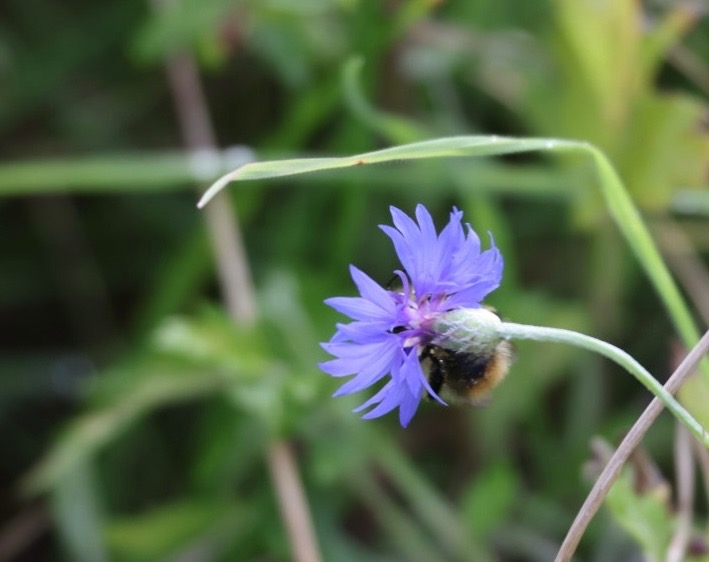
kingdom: Plantae
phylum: Tracheophyta
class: Magnoliopsida
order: Asterales
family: Asteraceae
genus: Centaurea
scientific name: Centaurea cyanus
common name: Kornblomst
